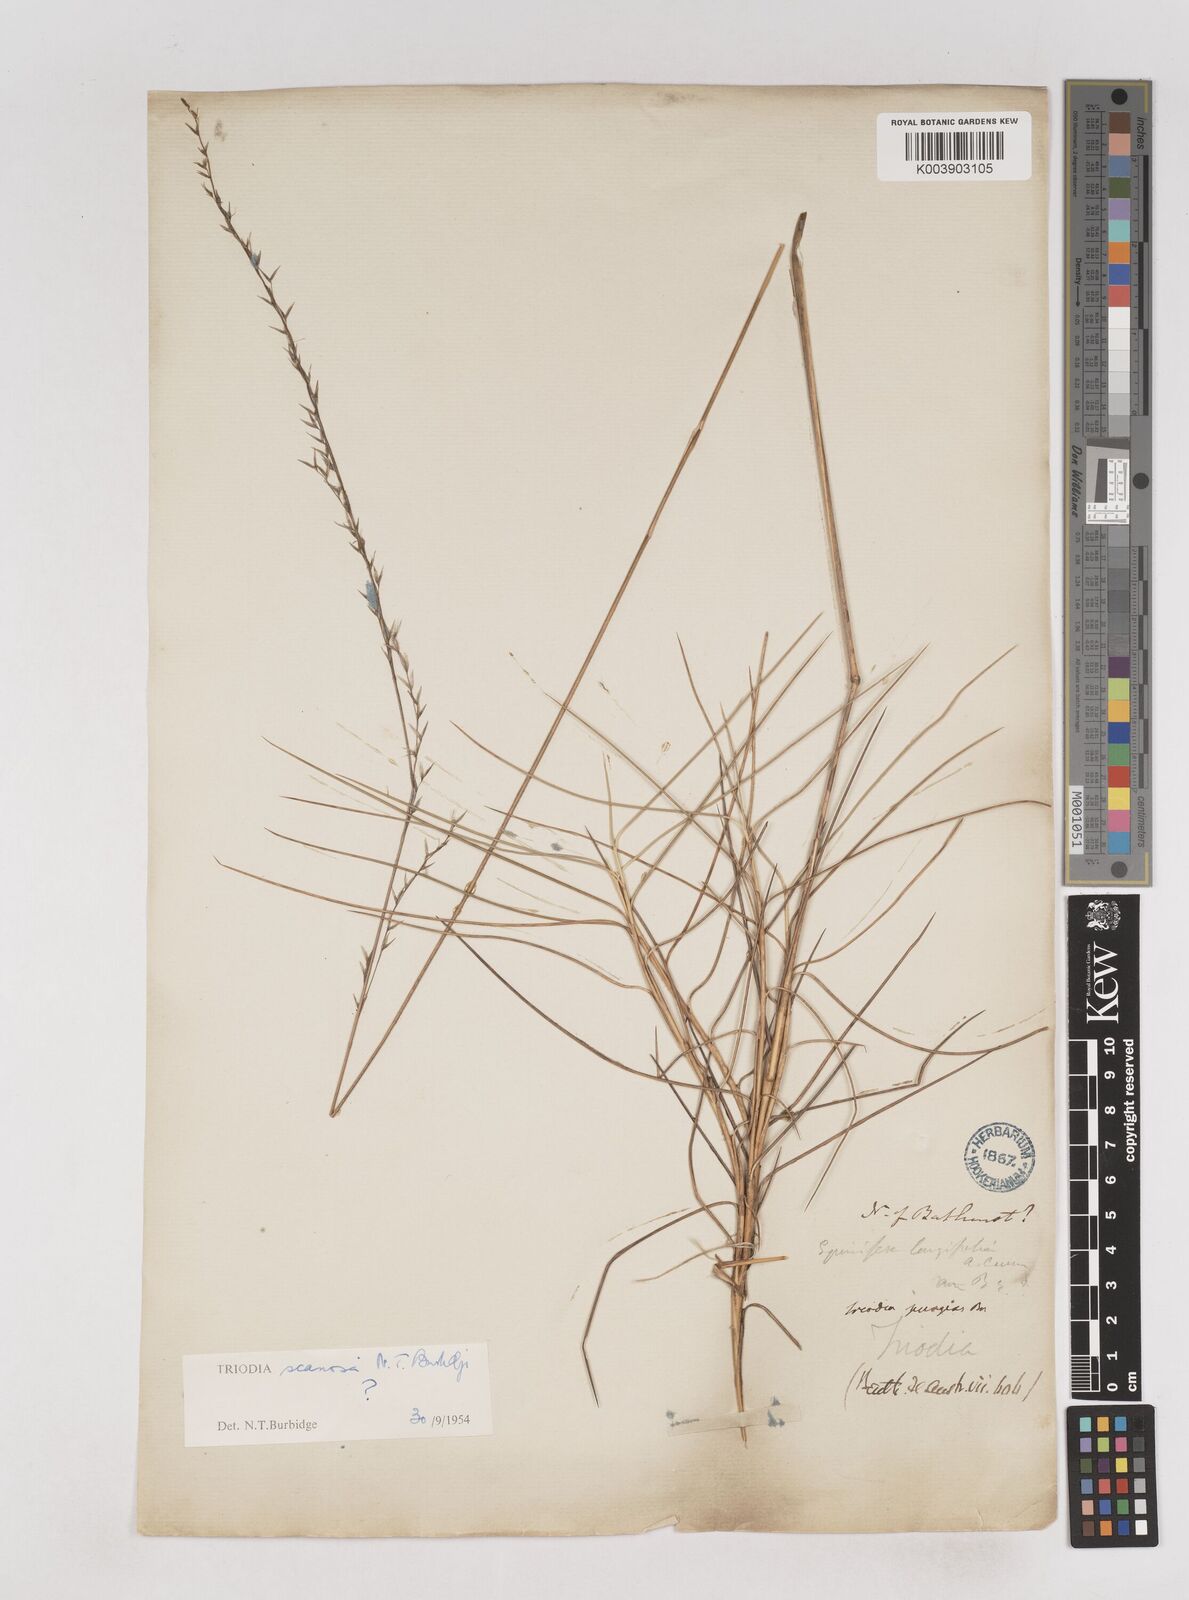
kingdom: Plantae
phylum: Tracheophyta
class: Liliopsida
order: Poales
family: Poaceae
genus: Triodia
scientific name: Triodia scariosa
